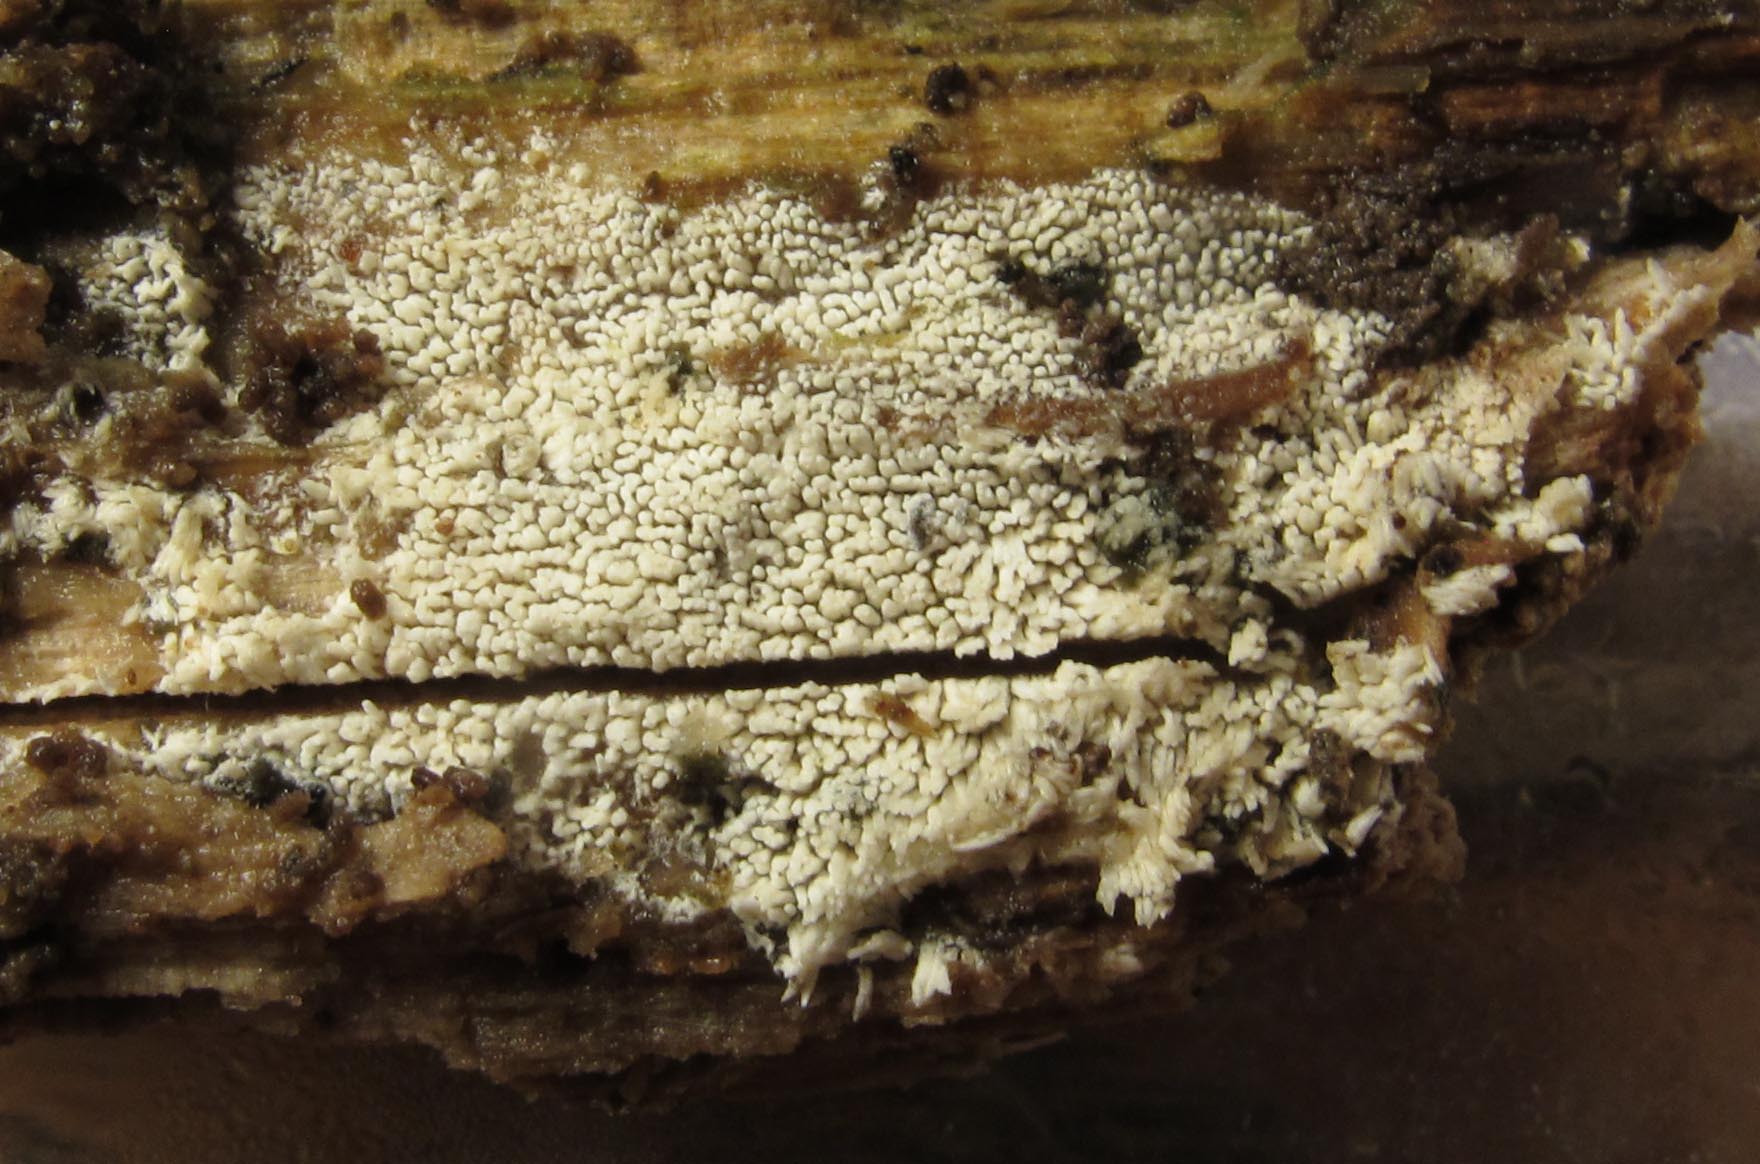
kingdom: Fungi
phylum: Basidiomycota
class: Agaricomycetes
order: Trechisporales
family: Sistotremataceae
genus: Trechispora
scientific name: Trechispora farinacea
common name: pigget vathinde
